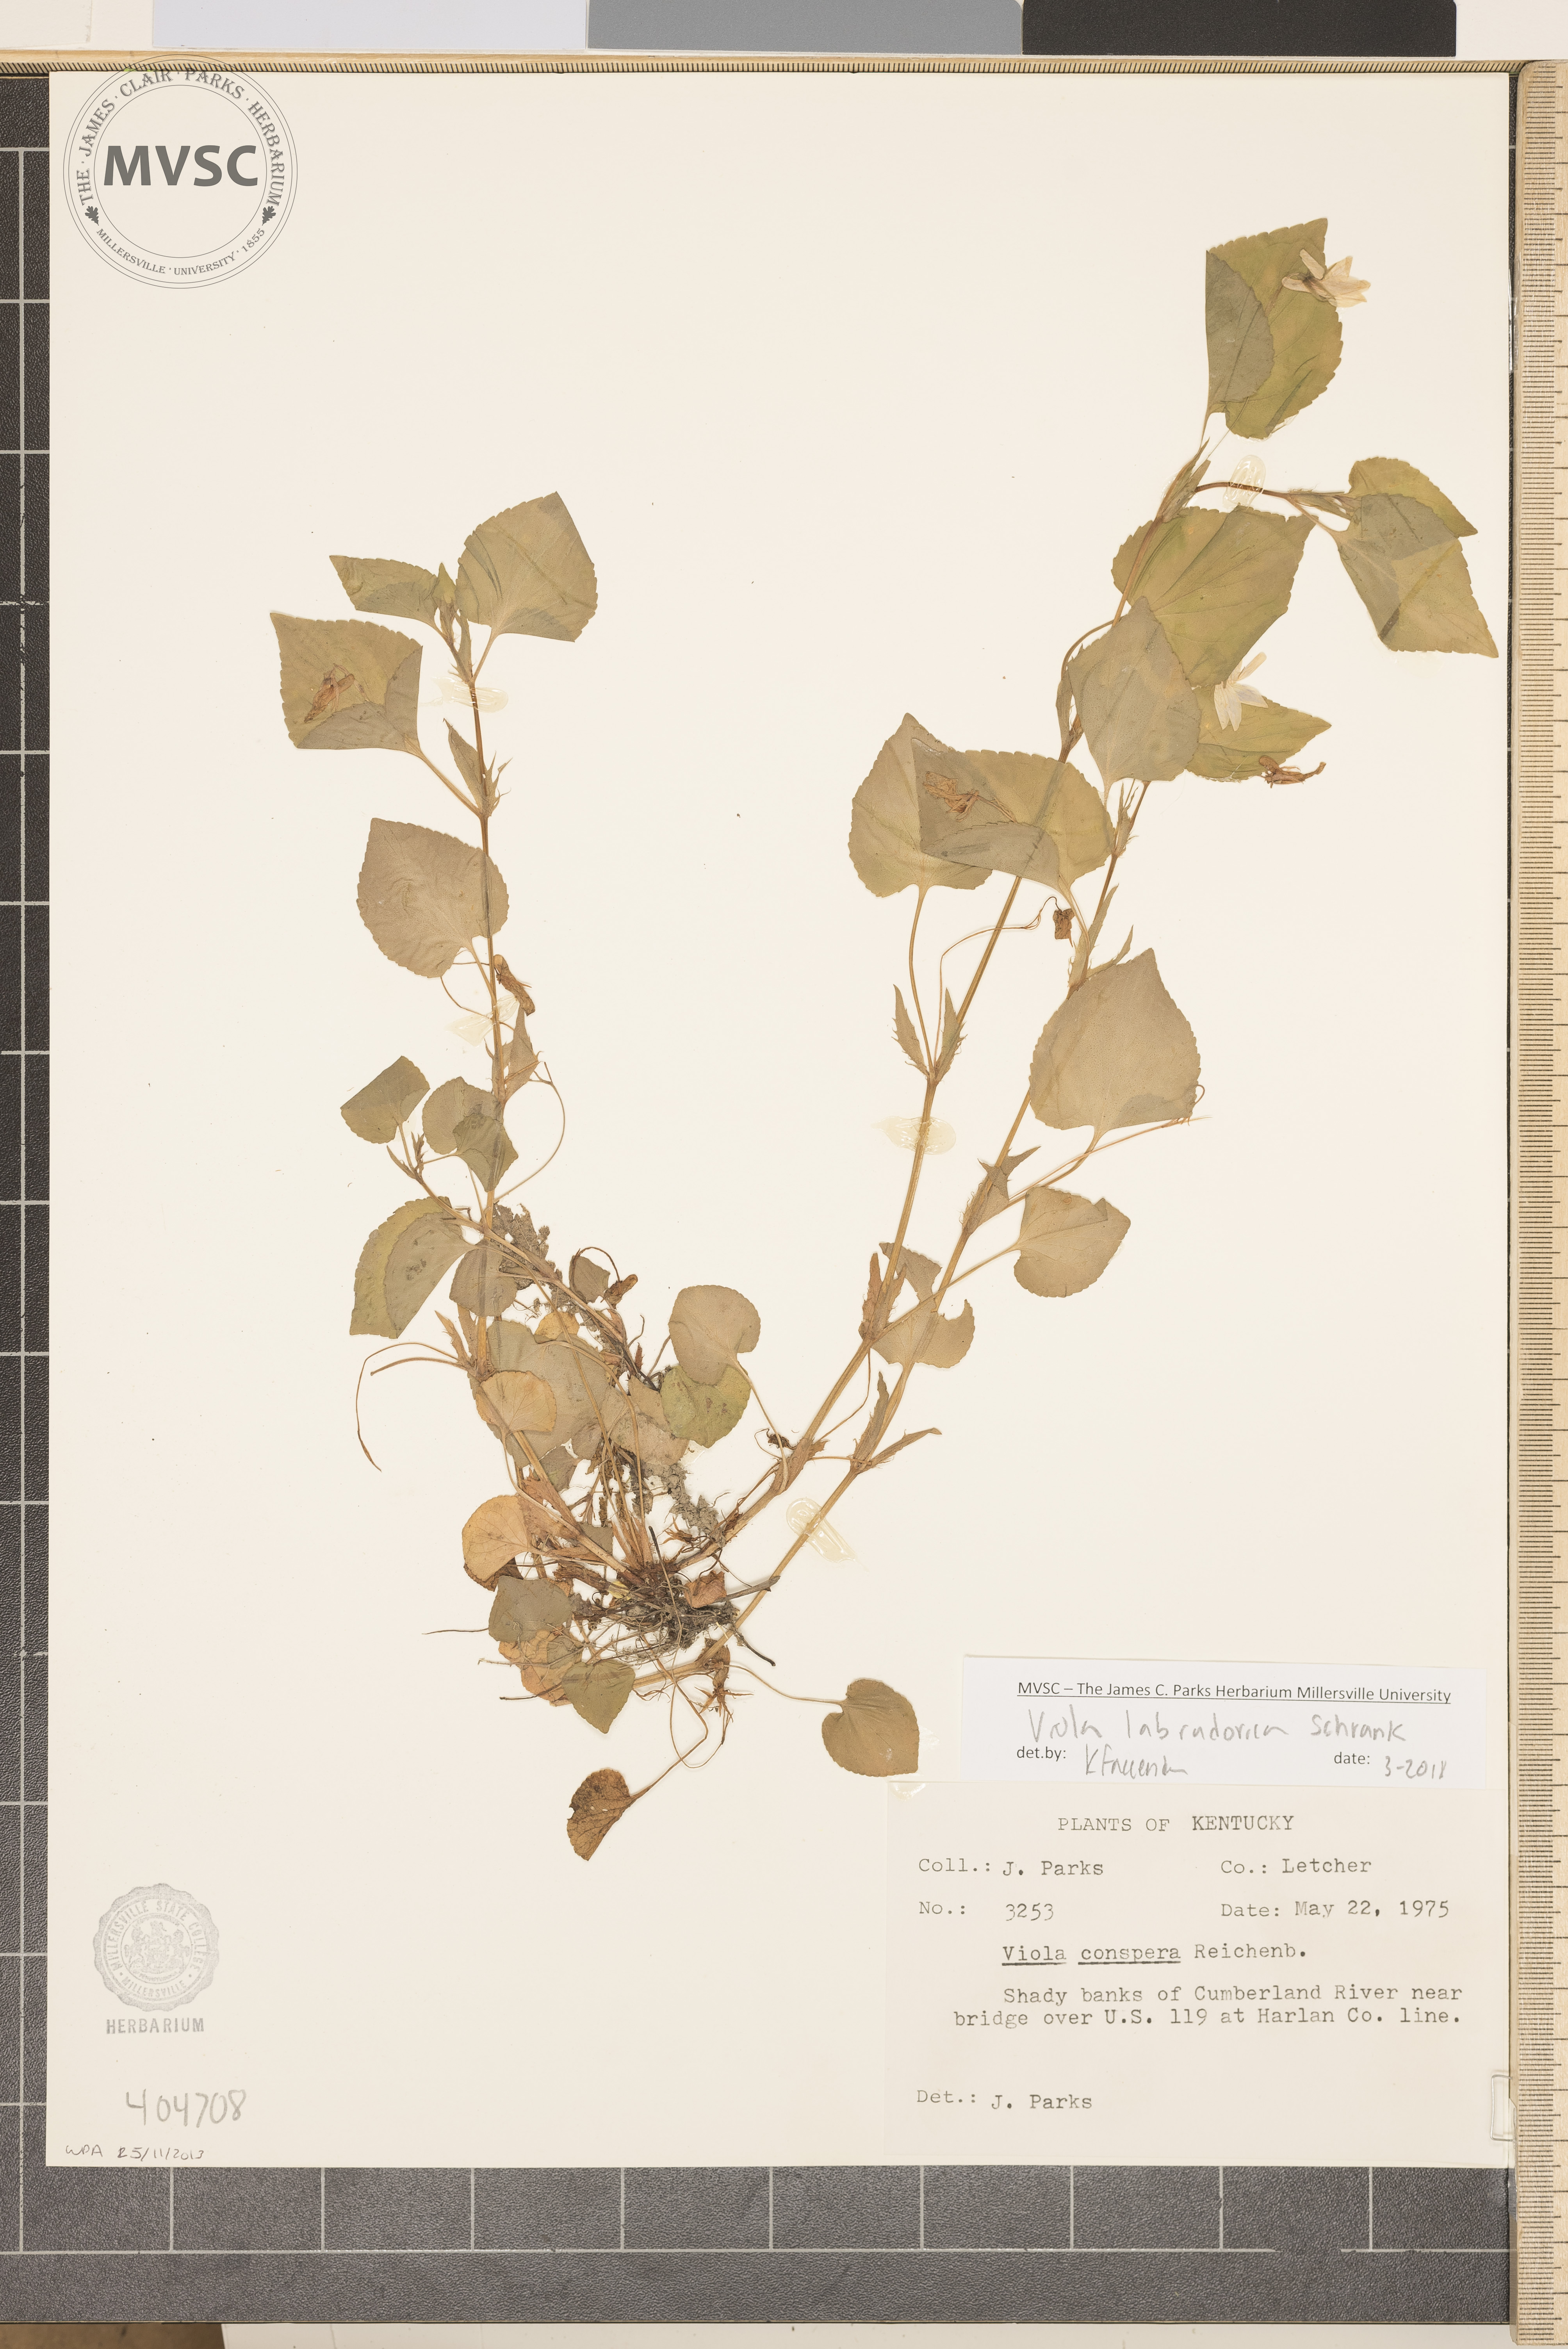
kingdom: Plantae
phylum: Tracheophyta
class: Magnoliopsida
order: Malpighiales
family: Violaceae
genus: Viola
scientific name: Viola labradorica
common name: Labrador violet
